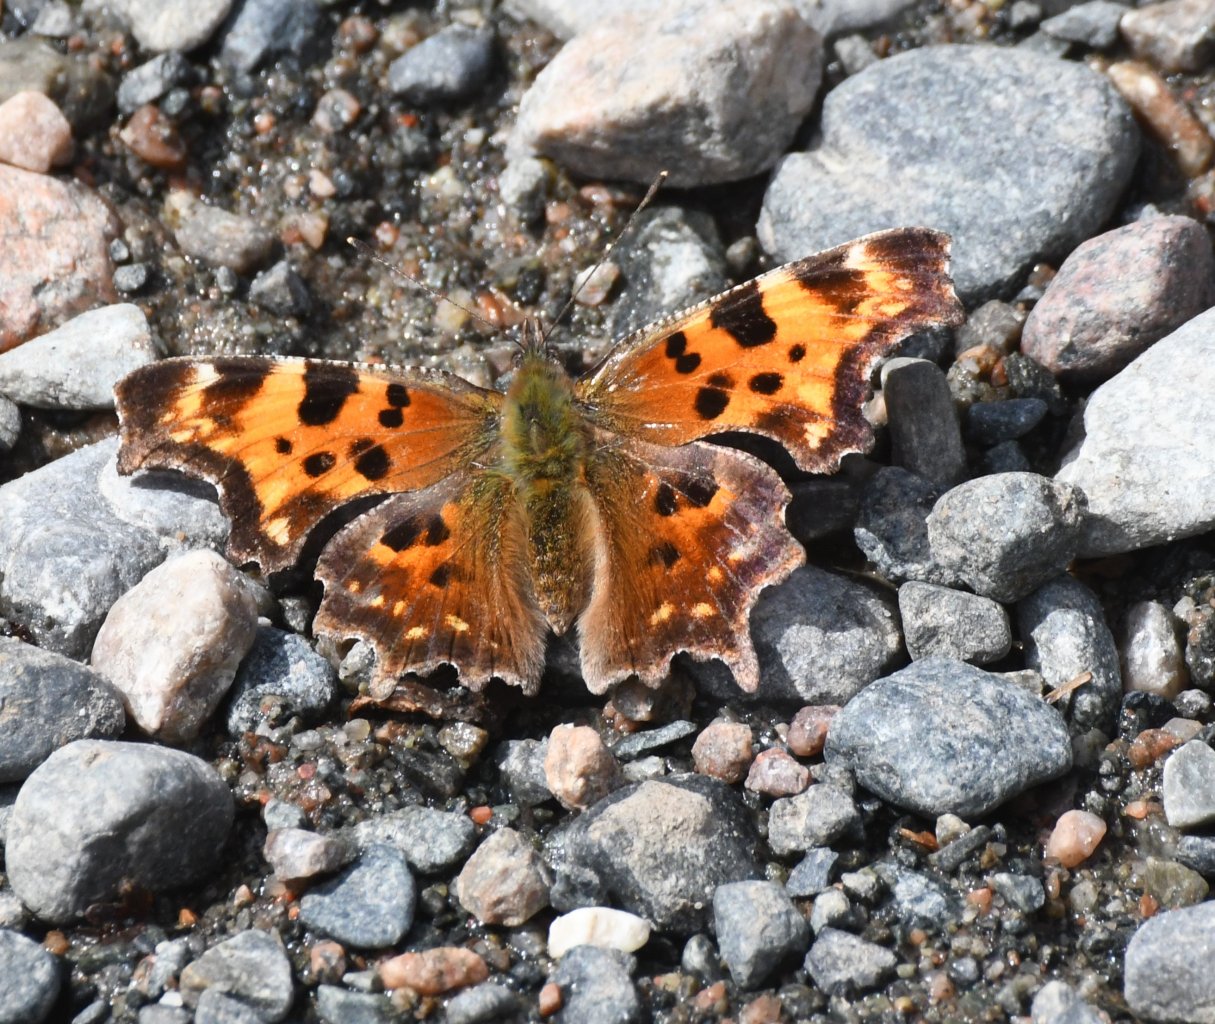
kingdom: Animalia
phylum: Arthropoda
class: Insecta
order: Lepidoptera
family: Nymphalidae
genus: Polygonia
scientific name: Polygonia faunus
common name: Green Comma
